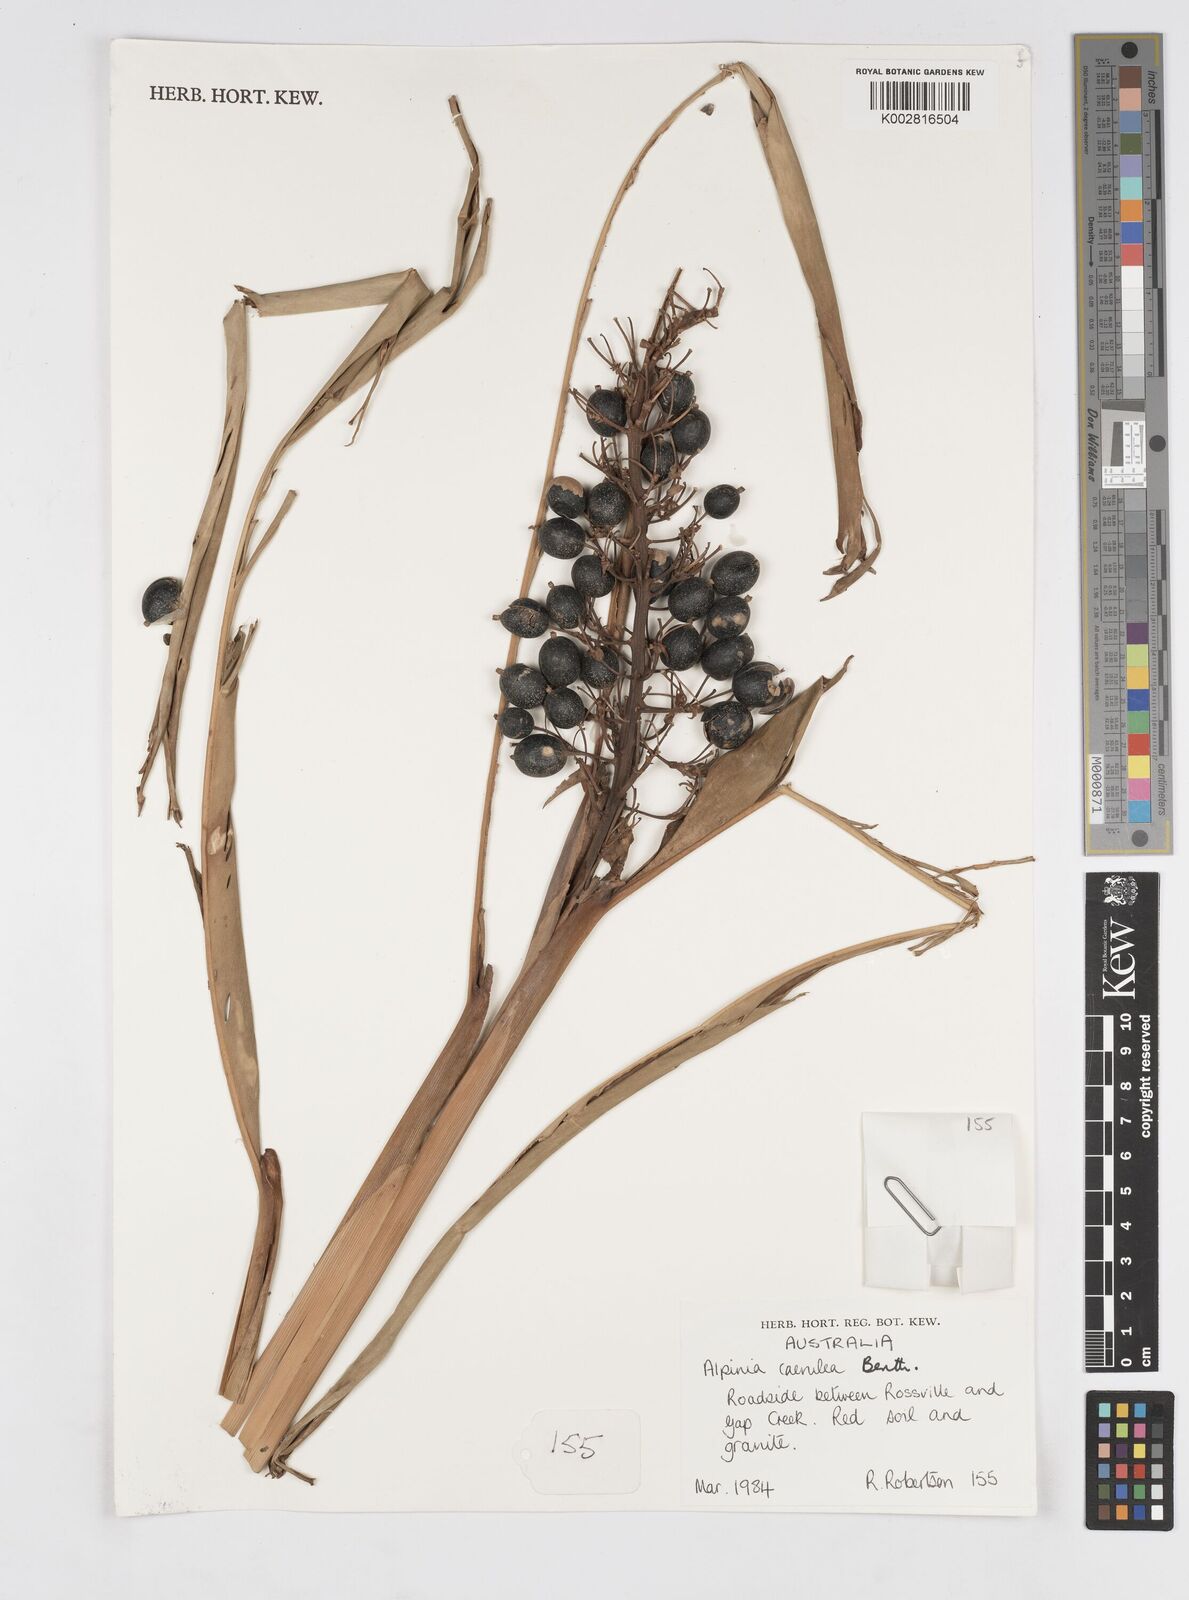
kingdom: Plantae
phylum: Tracheophyta
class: Liliopsida
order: Zingiberales
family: Zingiberaceae
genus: Alpinia
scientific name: Alpinia
